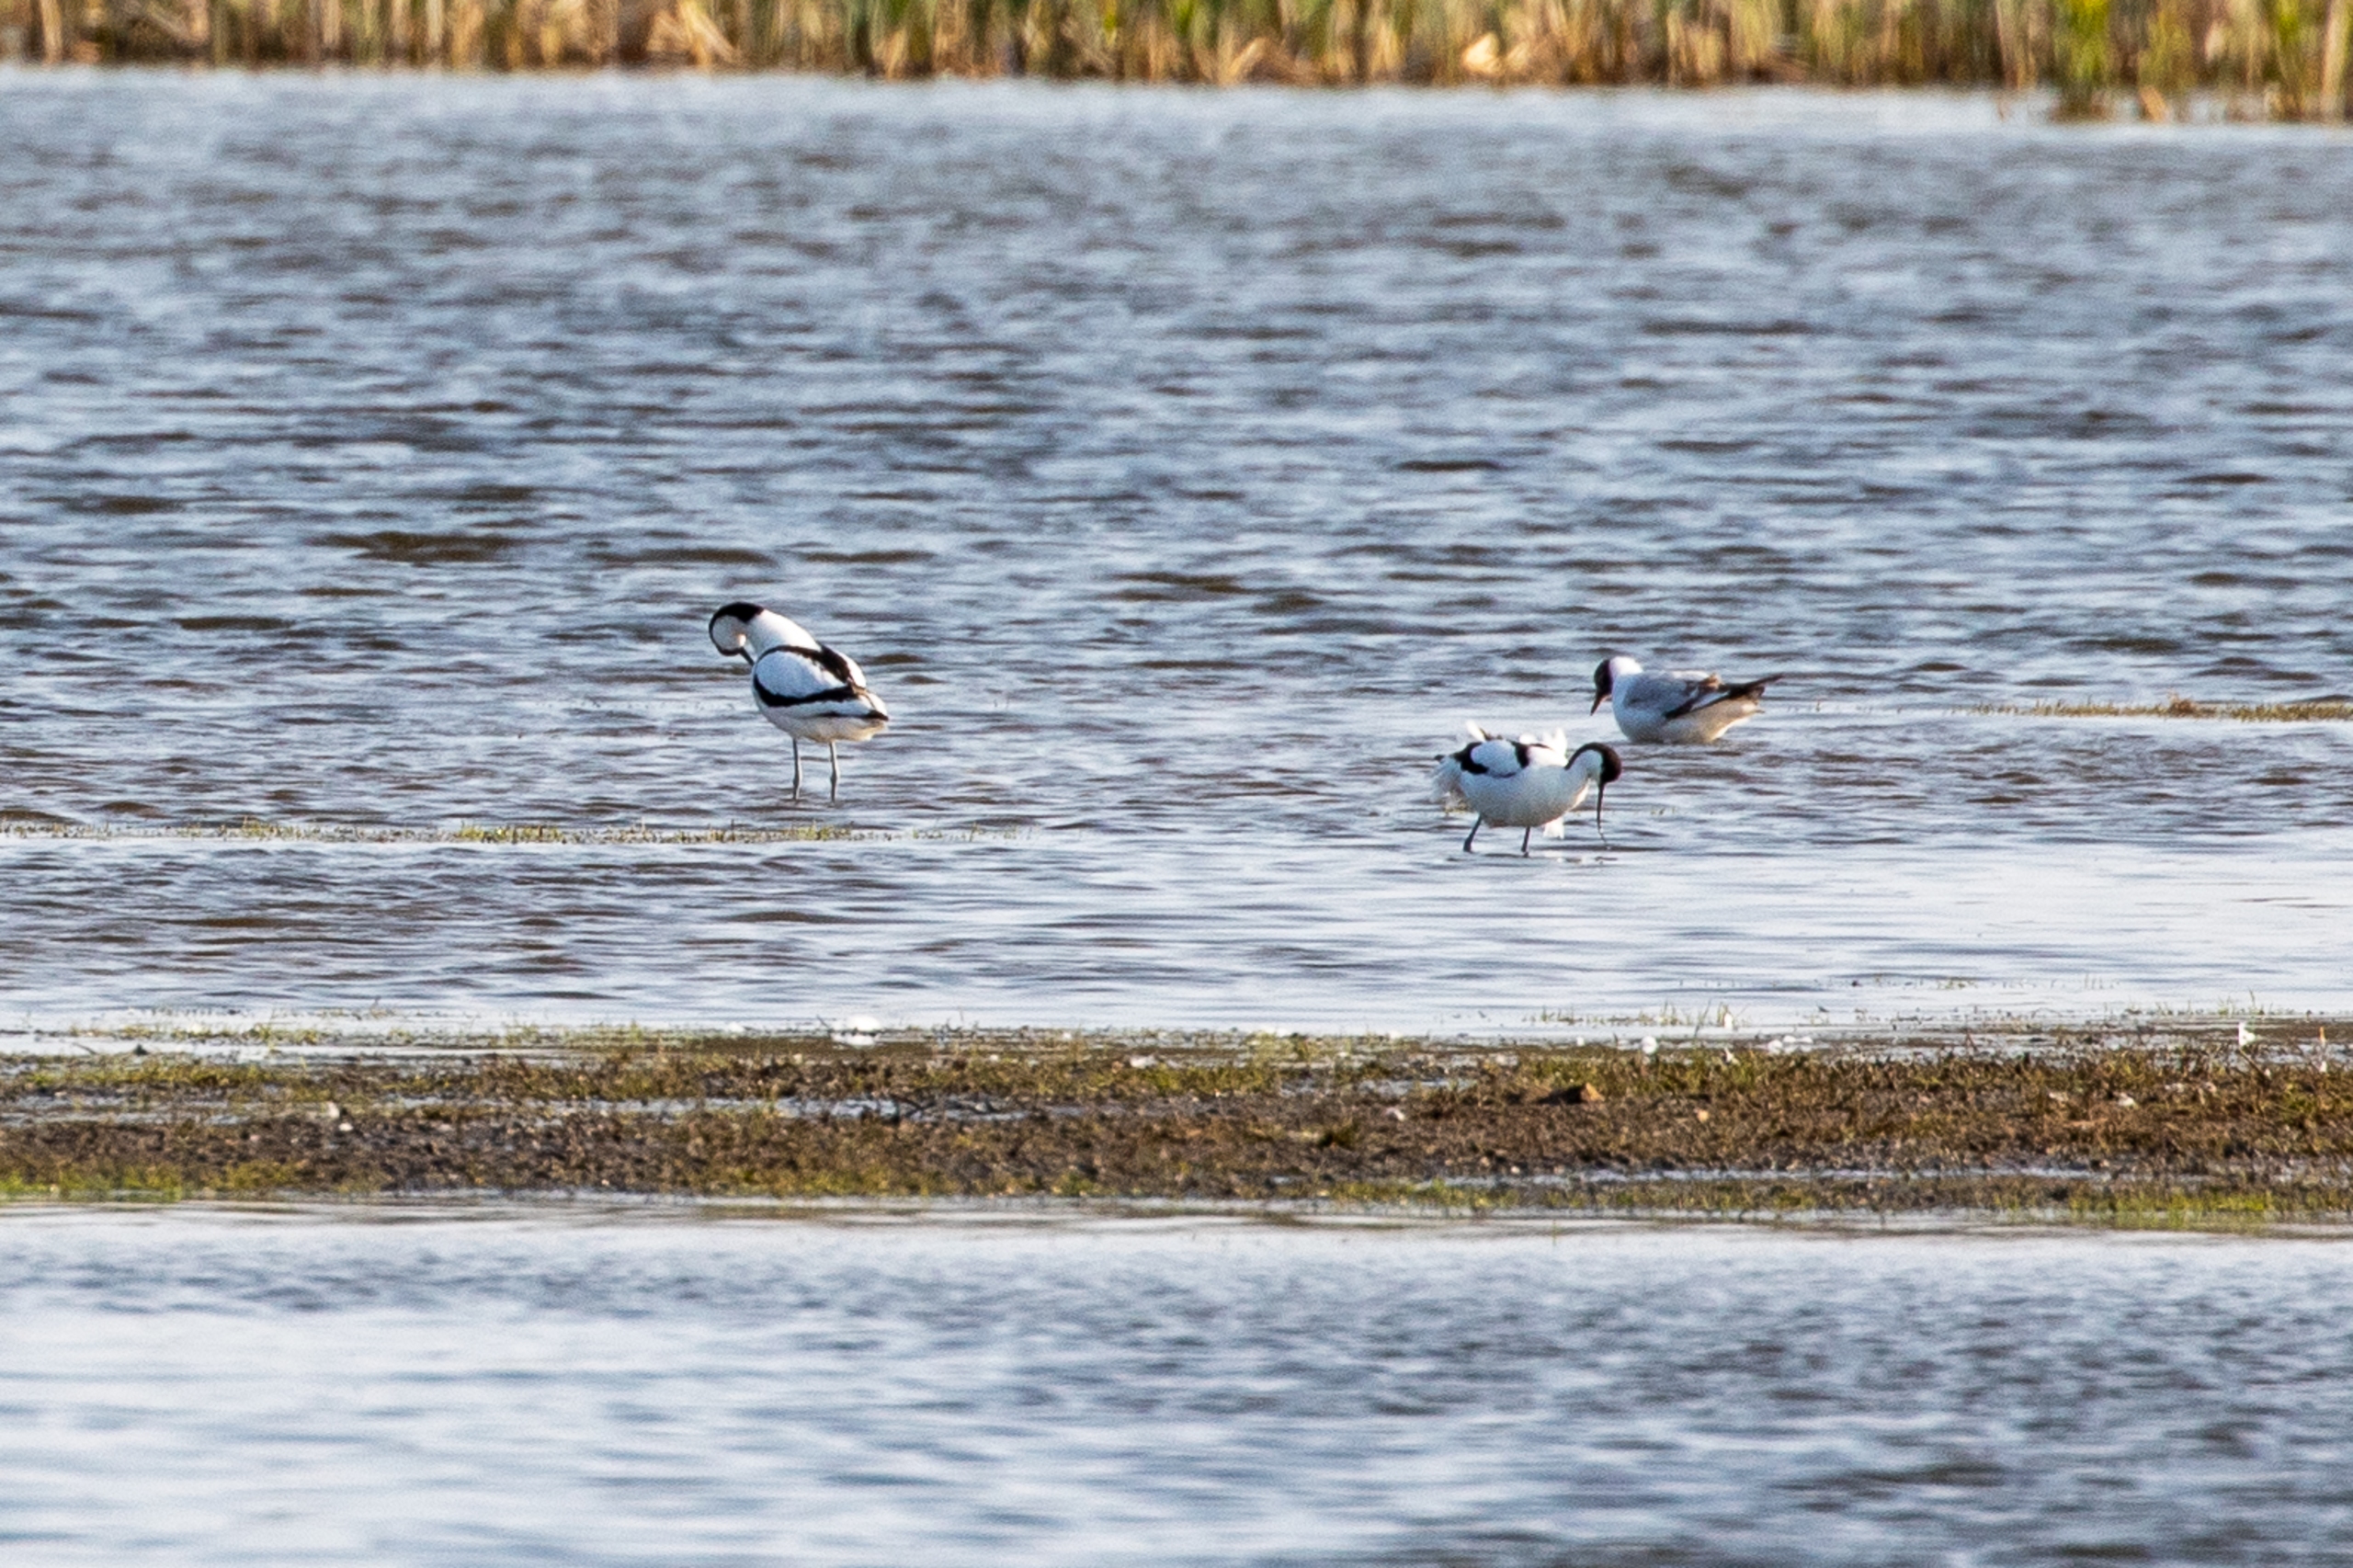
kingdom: Animalia
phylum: Chordata
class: Aves
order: Charadriiformes
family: Recurvirostridae
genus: Recurvirostra
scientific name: Recurvirostra avosetta
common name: Klyde
